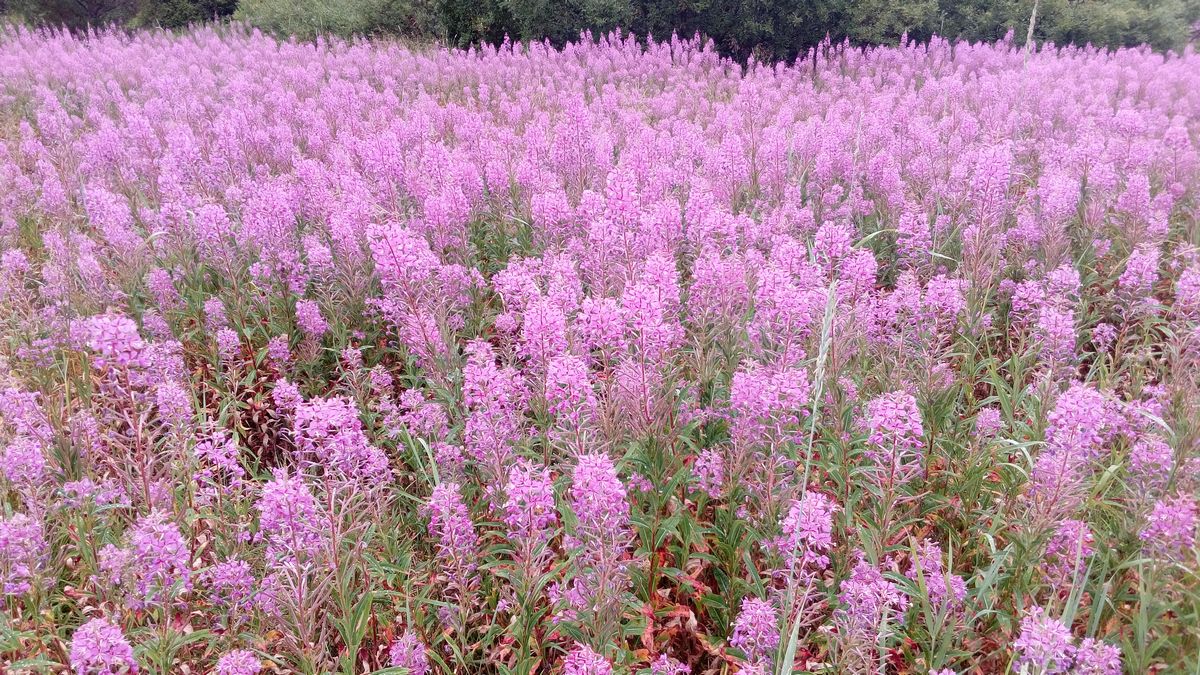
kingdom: Plantae
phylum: Tracheophyta
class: Magnoliopsida
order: Myrtales
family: Onagraceae
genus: Chamaenerion
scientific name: Chamaenerion angustifolium
